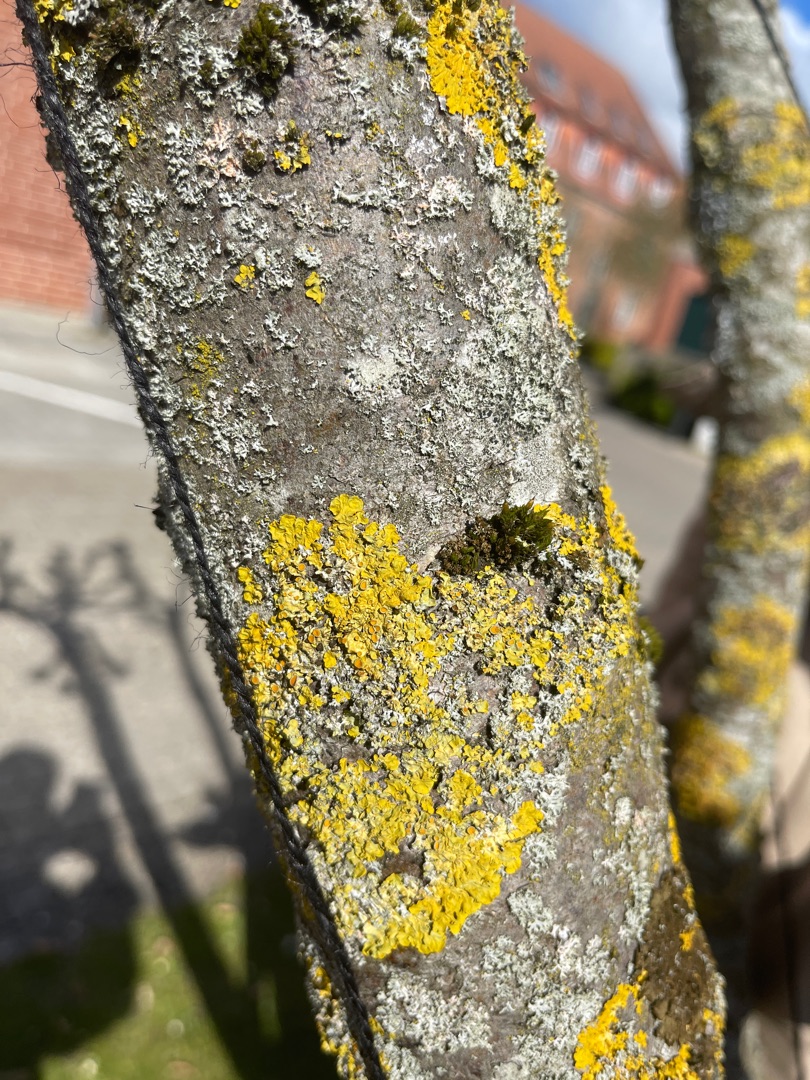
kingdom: Fungi
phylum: Ascomycota
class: Lecanoromycetes
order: Teloschistales
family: Teloschistaceae
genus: Xanthoria
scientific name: Xanthoria parietina
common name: Almindelig væggelav
